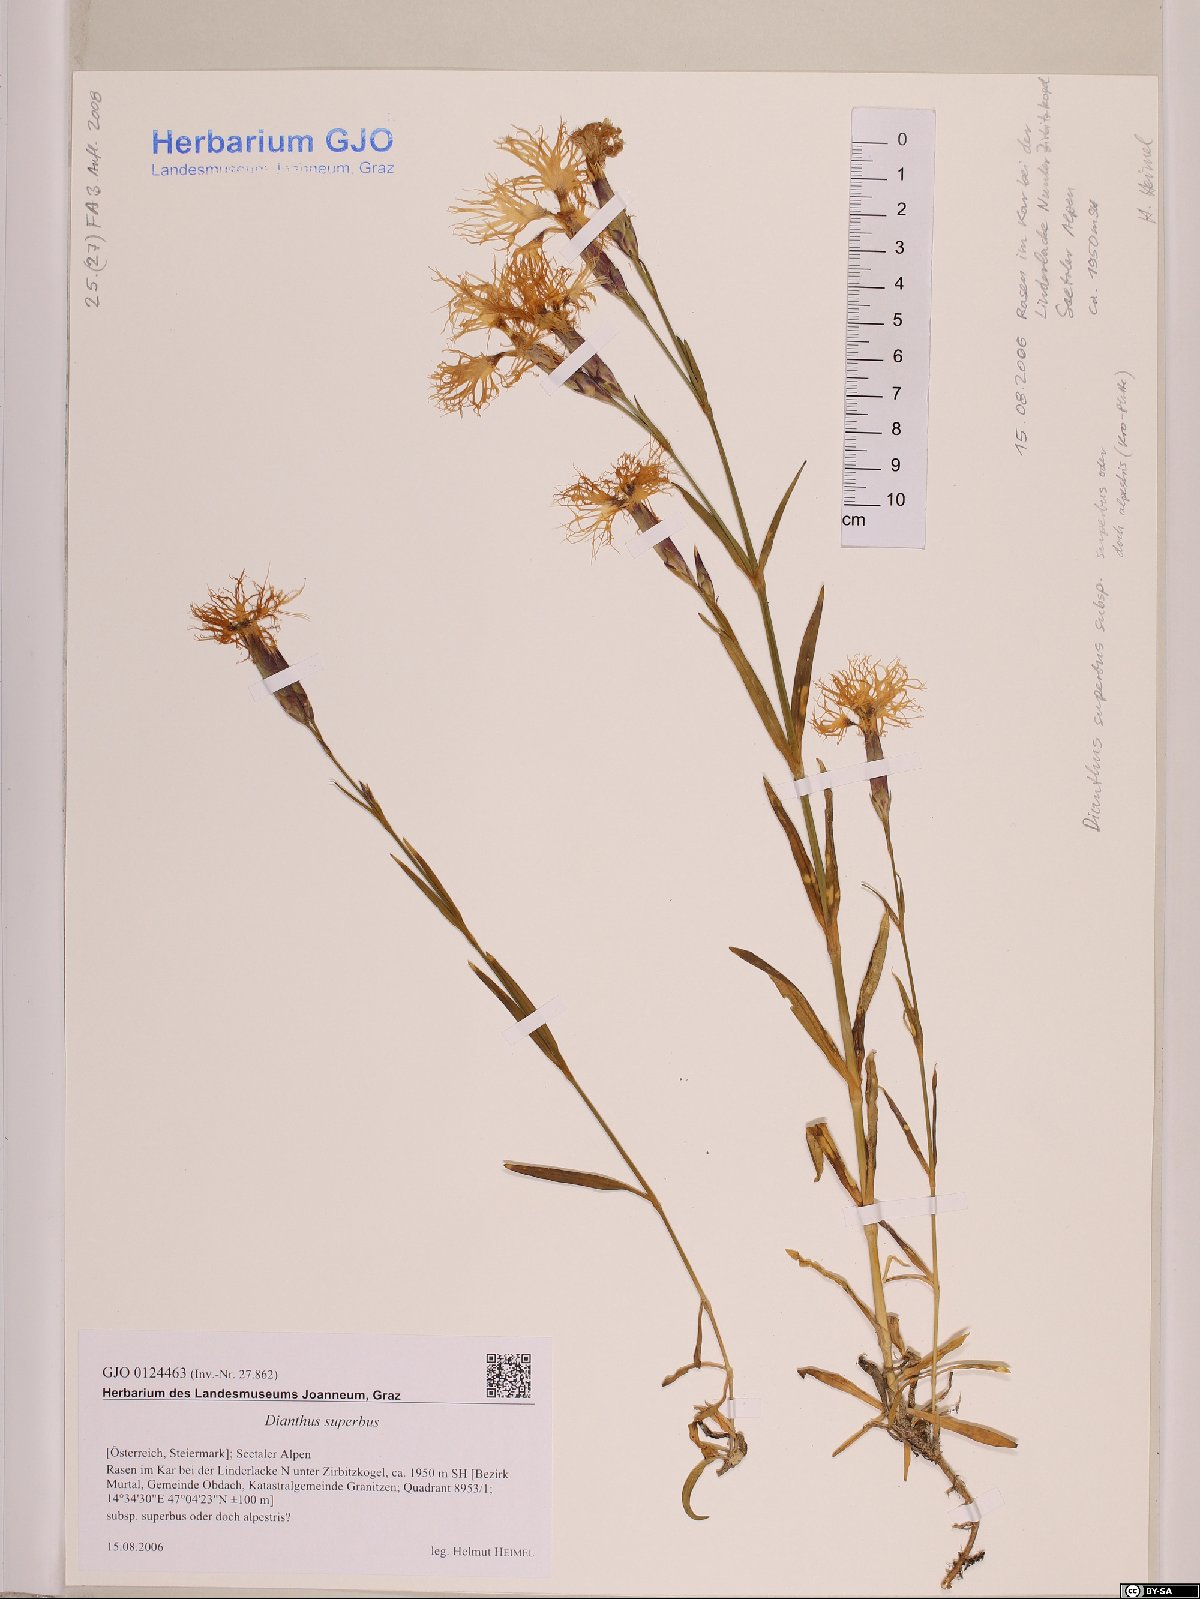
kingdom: Plantae
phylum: Tracheophyta
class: Magnoliopsida
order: Caryophyllales
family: Caryophyllaceae
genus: Dianthus
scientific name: Dianthus superbus
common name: Fringed pink
